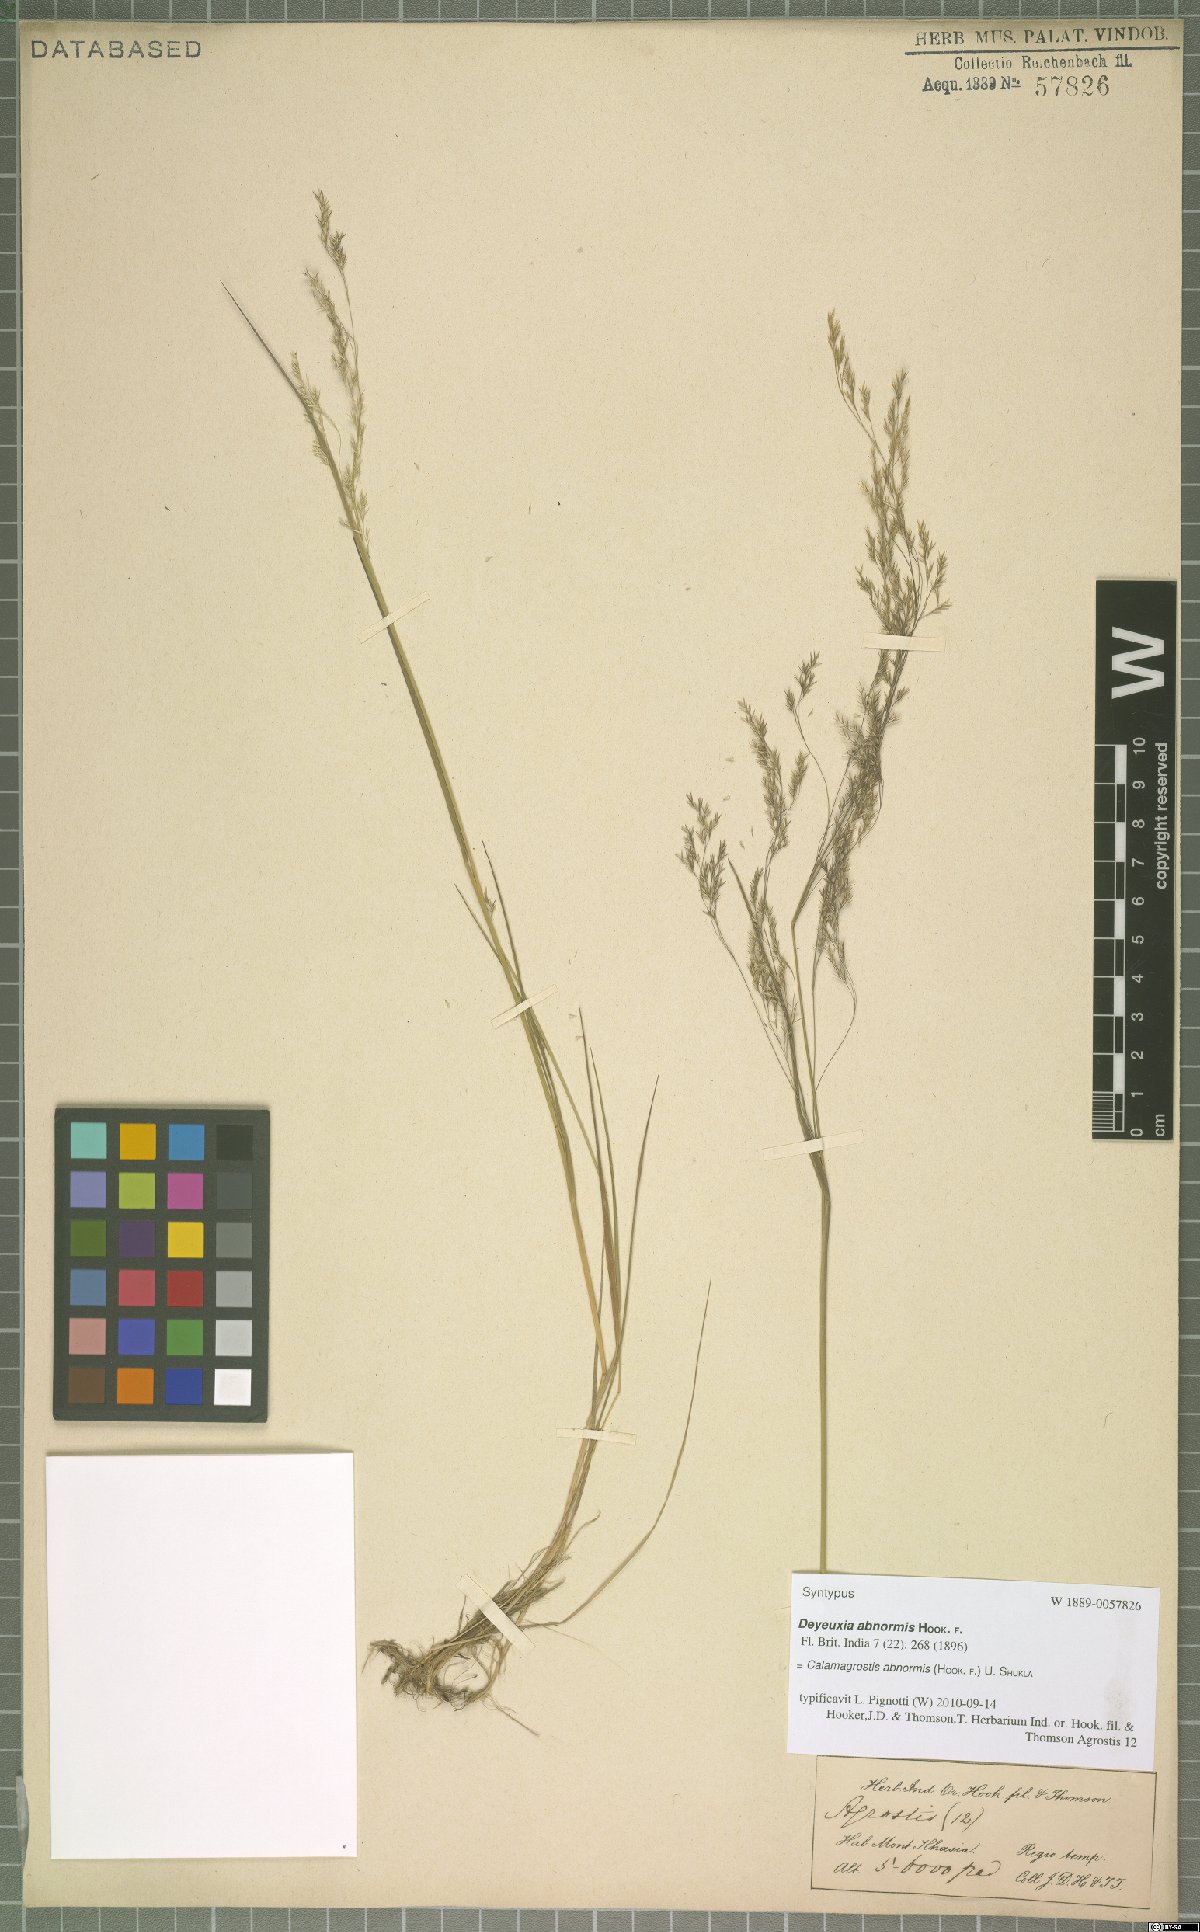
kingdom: Plantae
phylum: Tracheophyta
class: Liliopsida
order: Poales
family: Poaceae
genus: Agrostis
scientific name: Agrostis zenkeri
